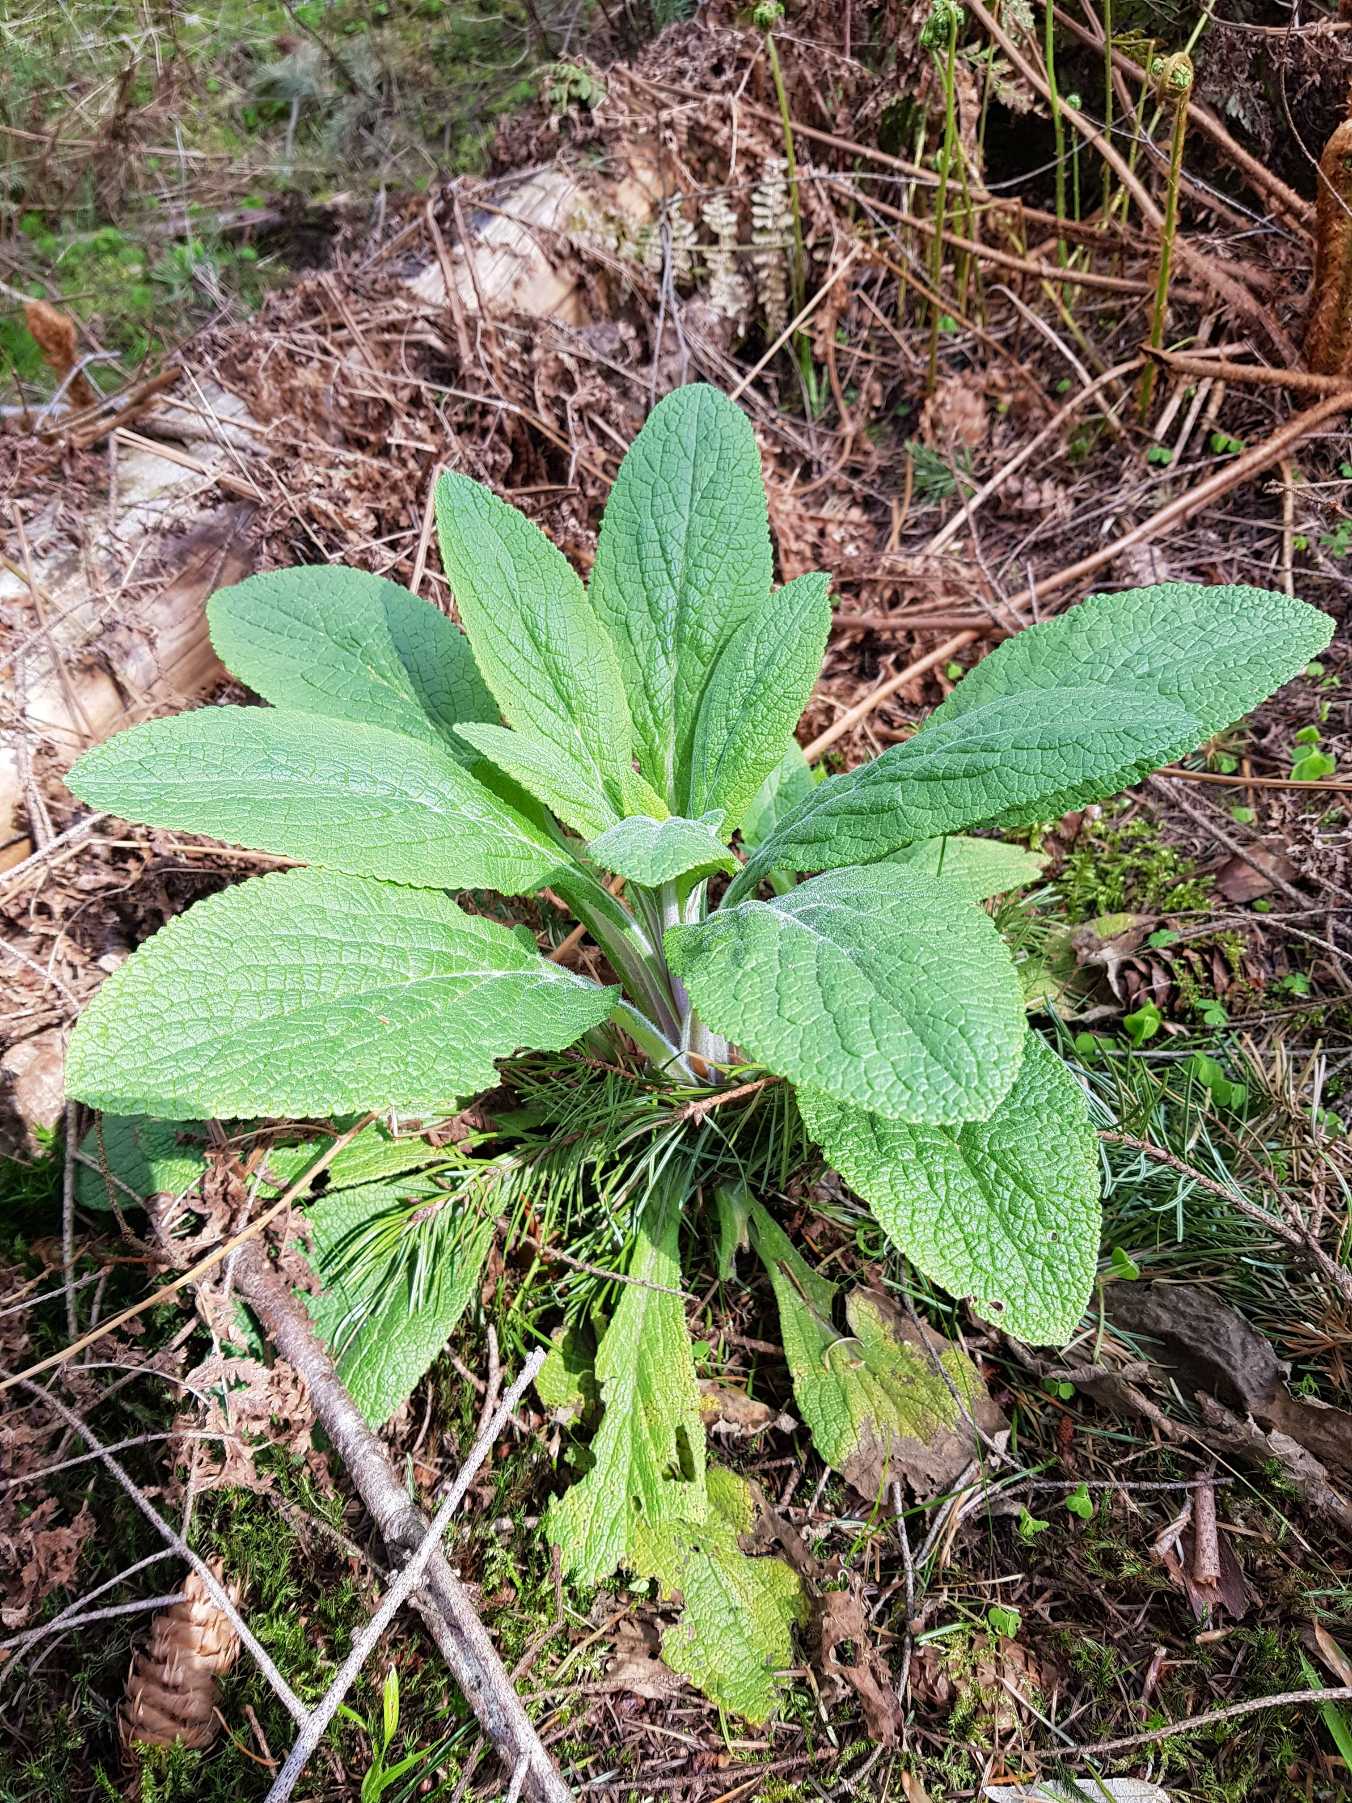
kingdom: Plantae
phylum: Tracheophyta
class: Magnoliopsida
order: Lamiales
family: Plantaginaceae
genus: Digitalis
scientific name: Digitalis purpurea
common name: Almindelig fingerbøl
